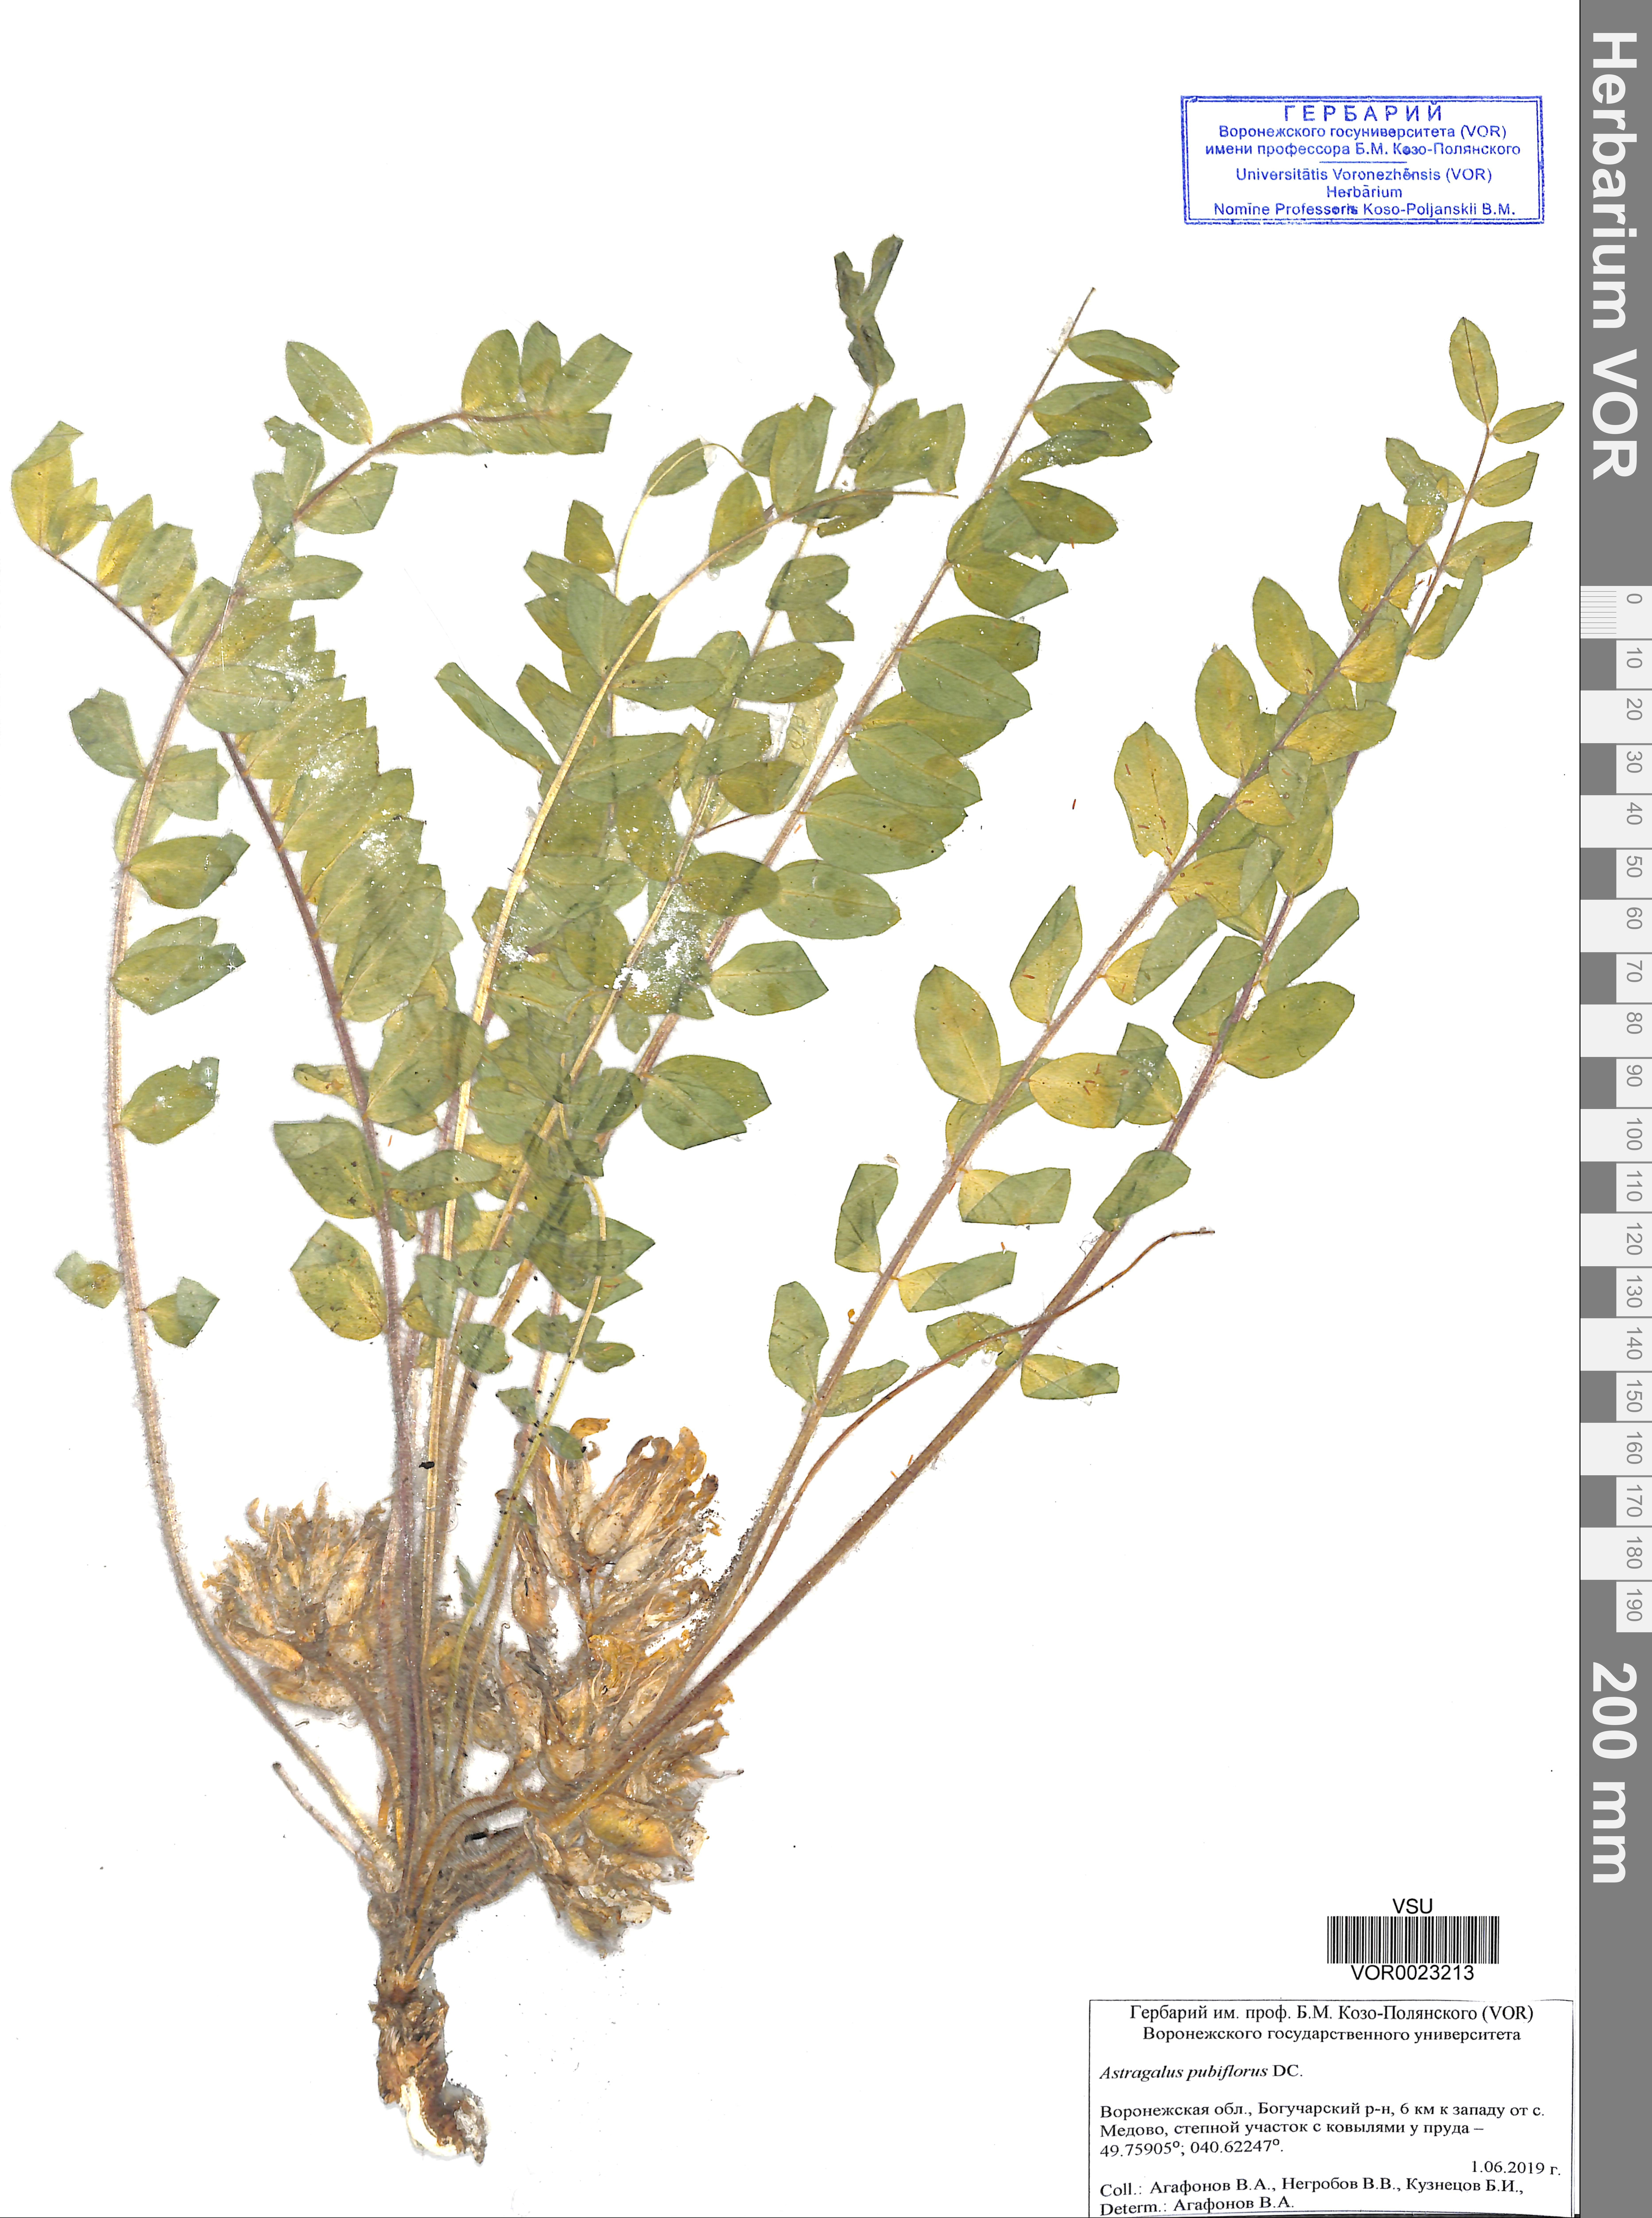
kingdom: Plantae
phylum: Tracheophyta
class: Magnoliopsida
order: Fabales
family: Fabaceae
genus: Astragalus
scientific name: Astragalus exscapus
